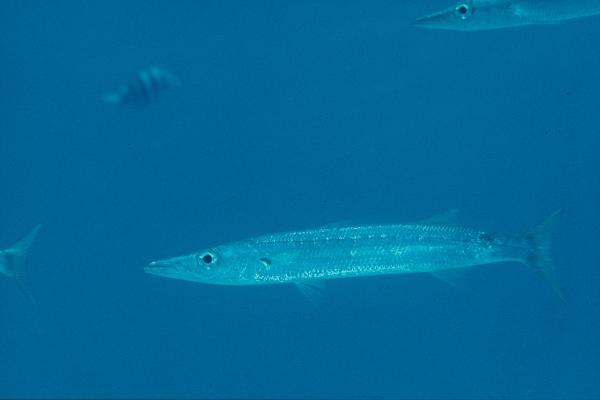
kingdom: Animalia
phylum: Chordata
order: Perciformes
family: Sphyraenidae
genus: Sphyraena
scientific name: Sphyraena obtusata
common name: Obtuse barracuda
